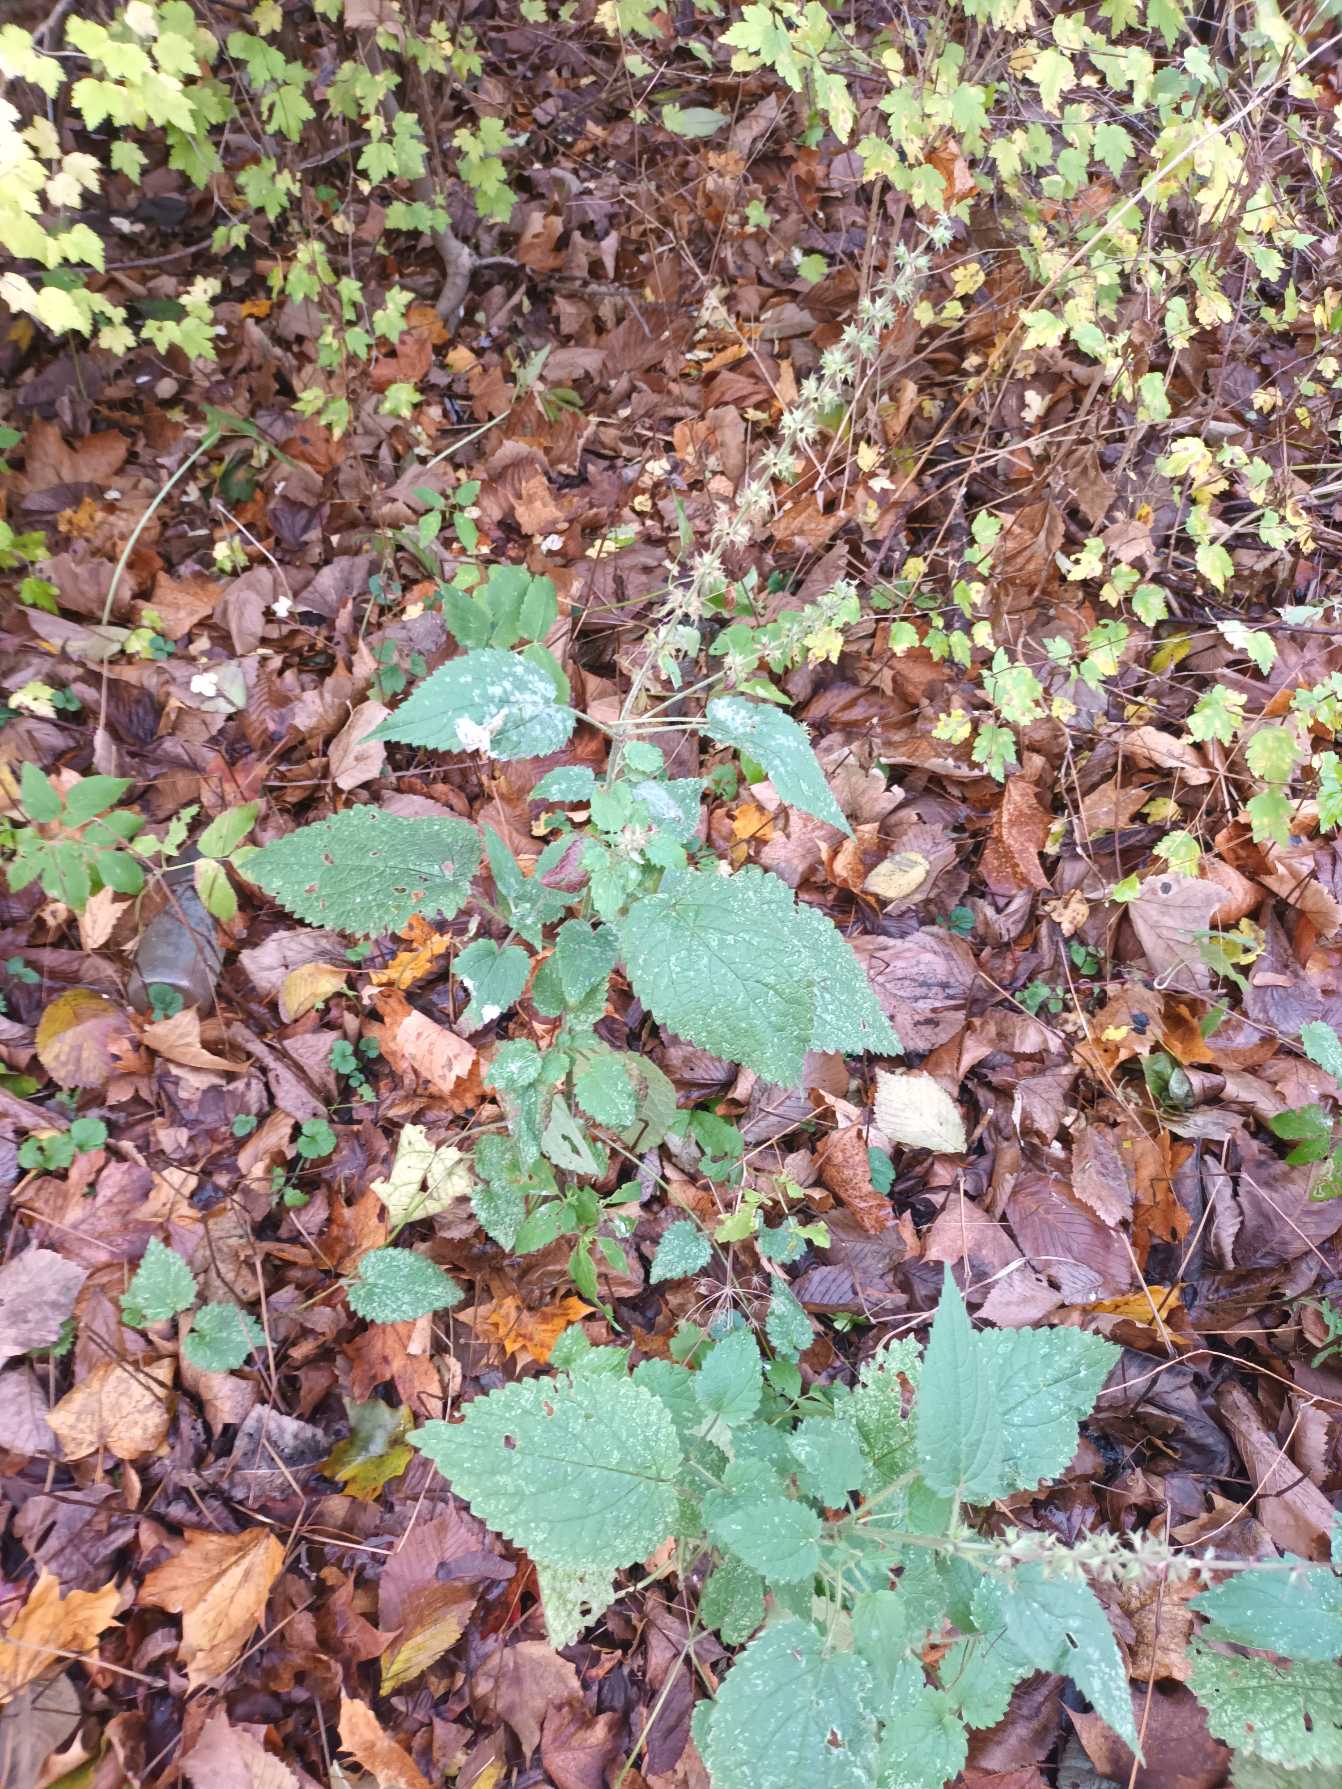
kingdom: Plantae
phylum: Tracheophyta
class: Magnoliopsida
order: Lamiales
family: Lamiaceae
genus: Stachys
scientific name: Stachys sylvatica
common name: Skov-galtetand
